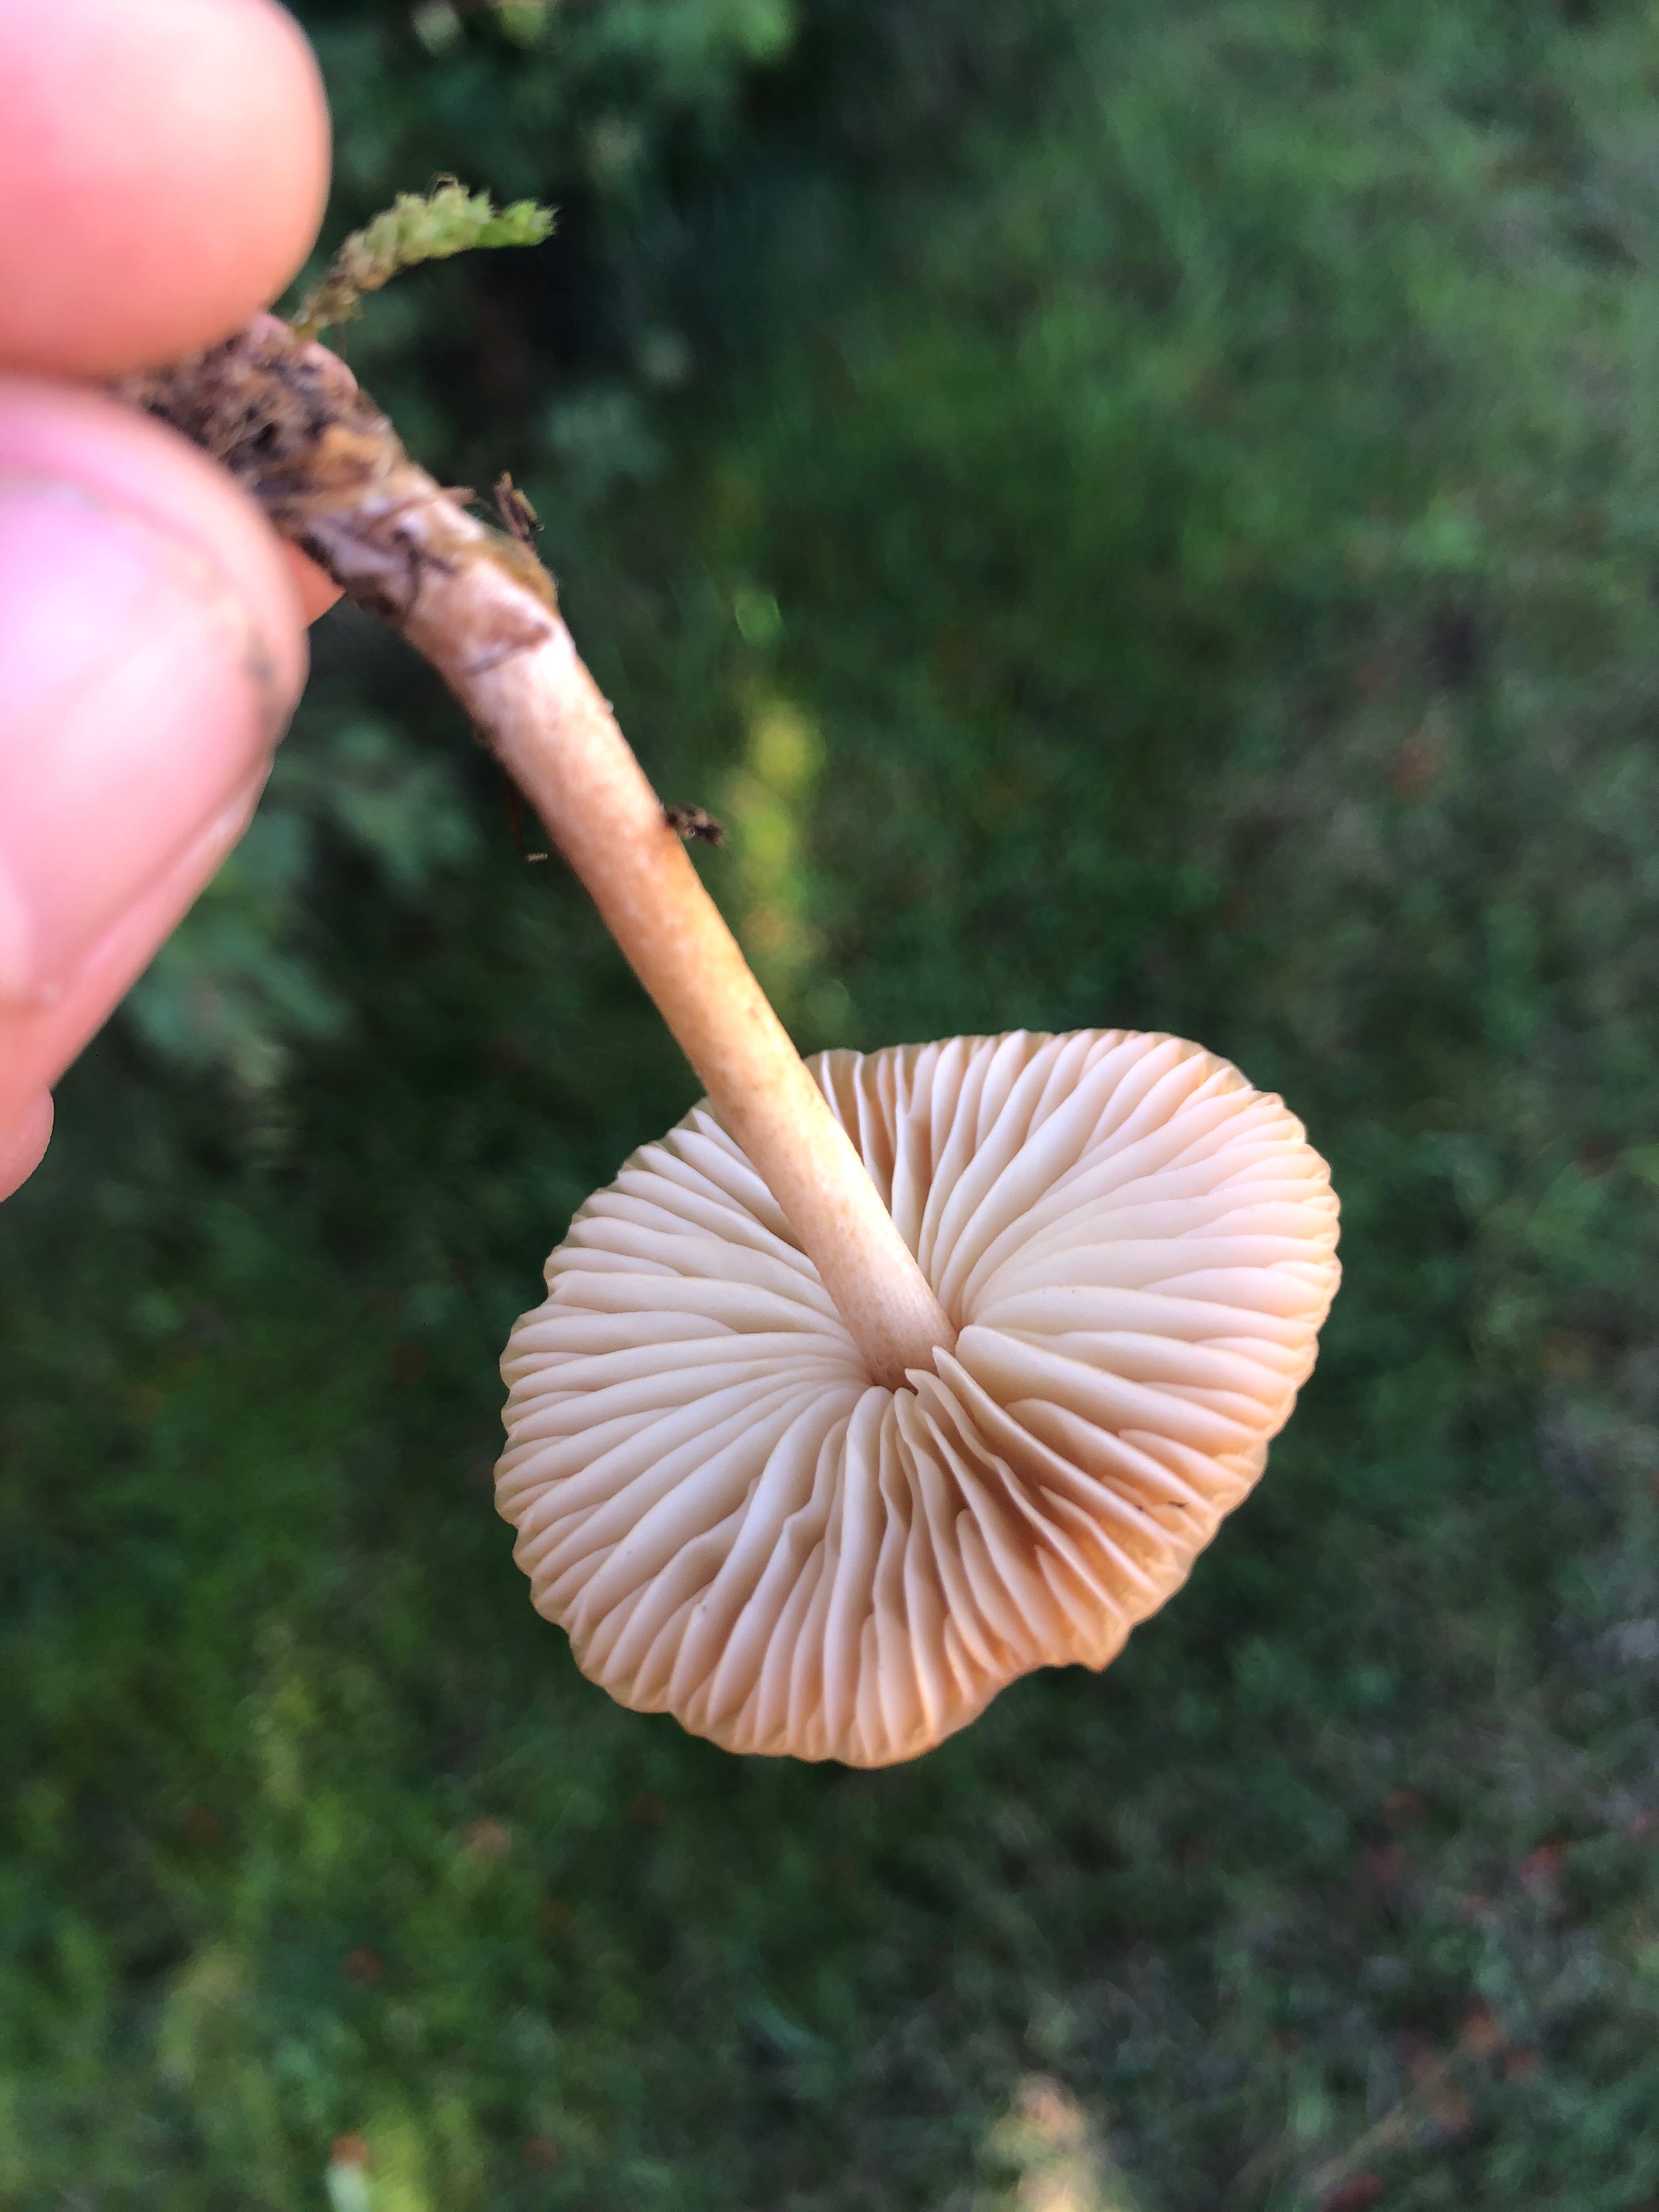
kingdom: Fungi
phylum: Basidiomycota
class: Agaricomycetes
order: Agaricales
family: Marasmiaceae
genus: Marasmius
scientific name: Marasmius oreades
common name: elledans-bruskhat
